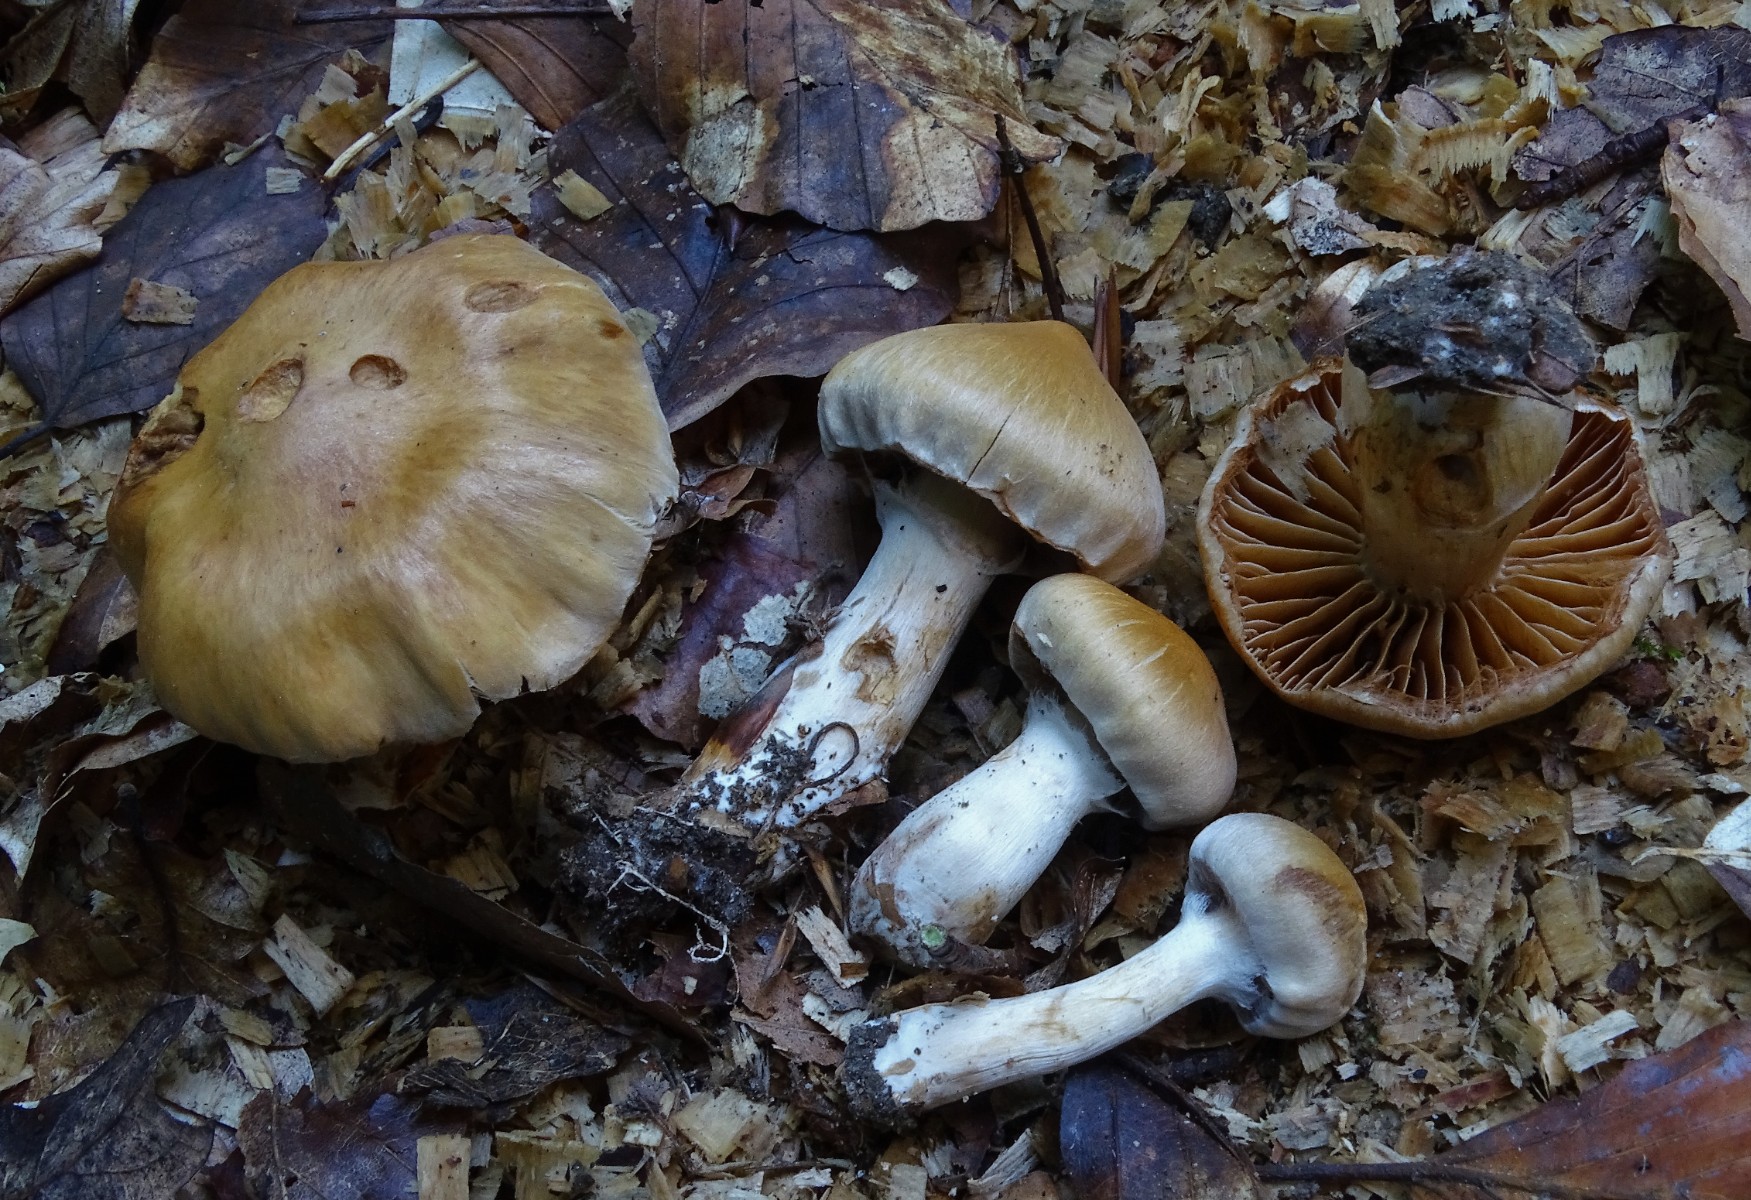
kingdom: Fungi
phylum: Basidiomycota
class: Agaricomycetes
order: Agaricales
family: Cortinariaceae
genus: Cortinarius
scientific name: Cortinarius hinnuleus
